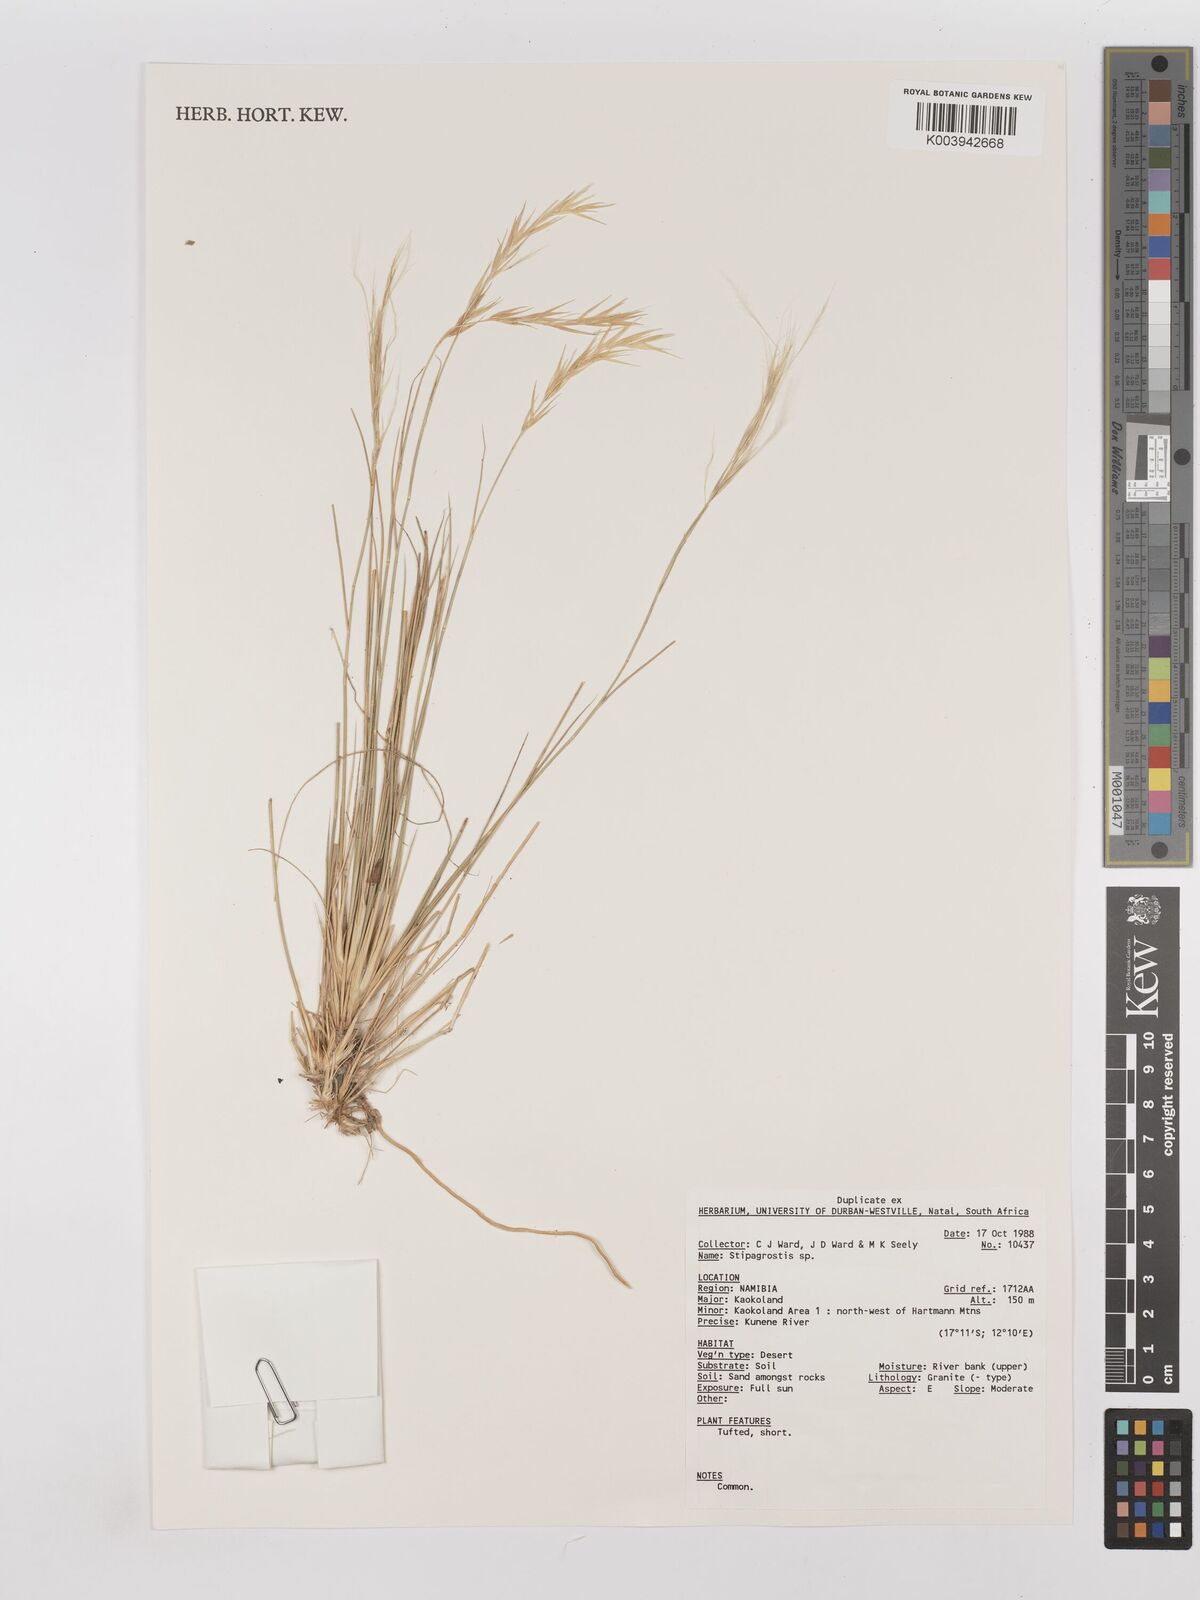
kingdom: Plantae
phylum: Tracheophyta
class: Liliopsida
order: Poales
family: Poaceae
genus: Stipagrostis
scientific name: Stipagrostis
